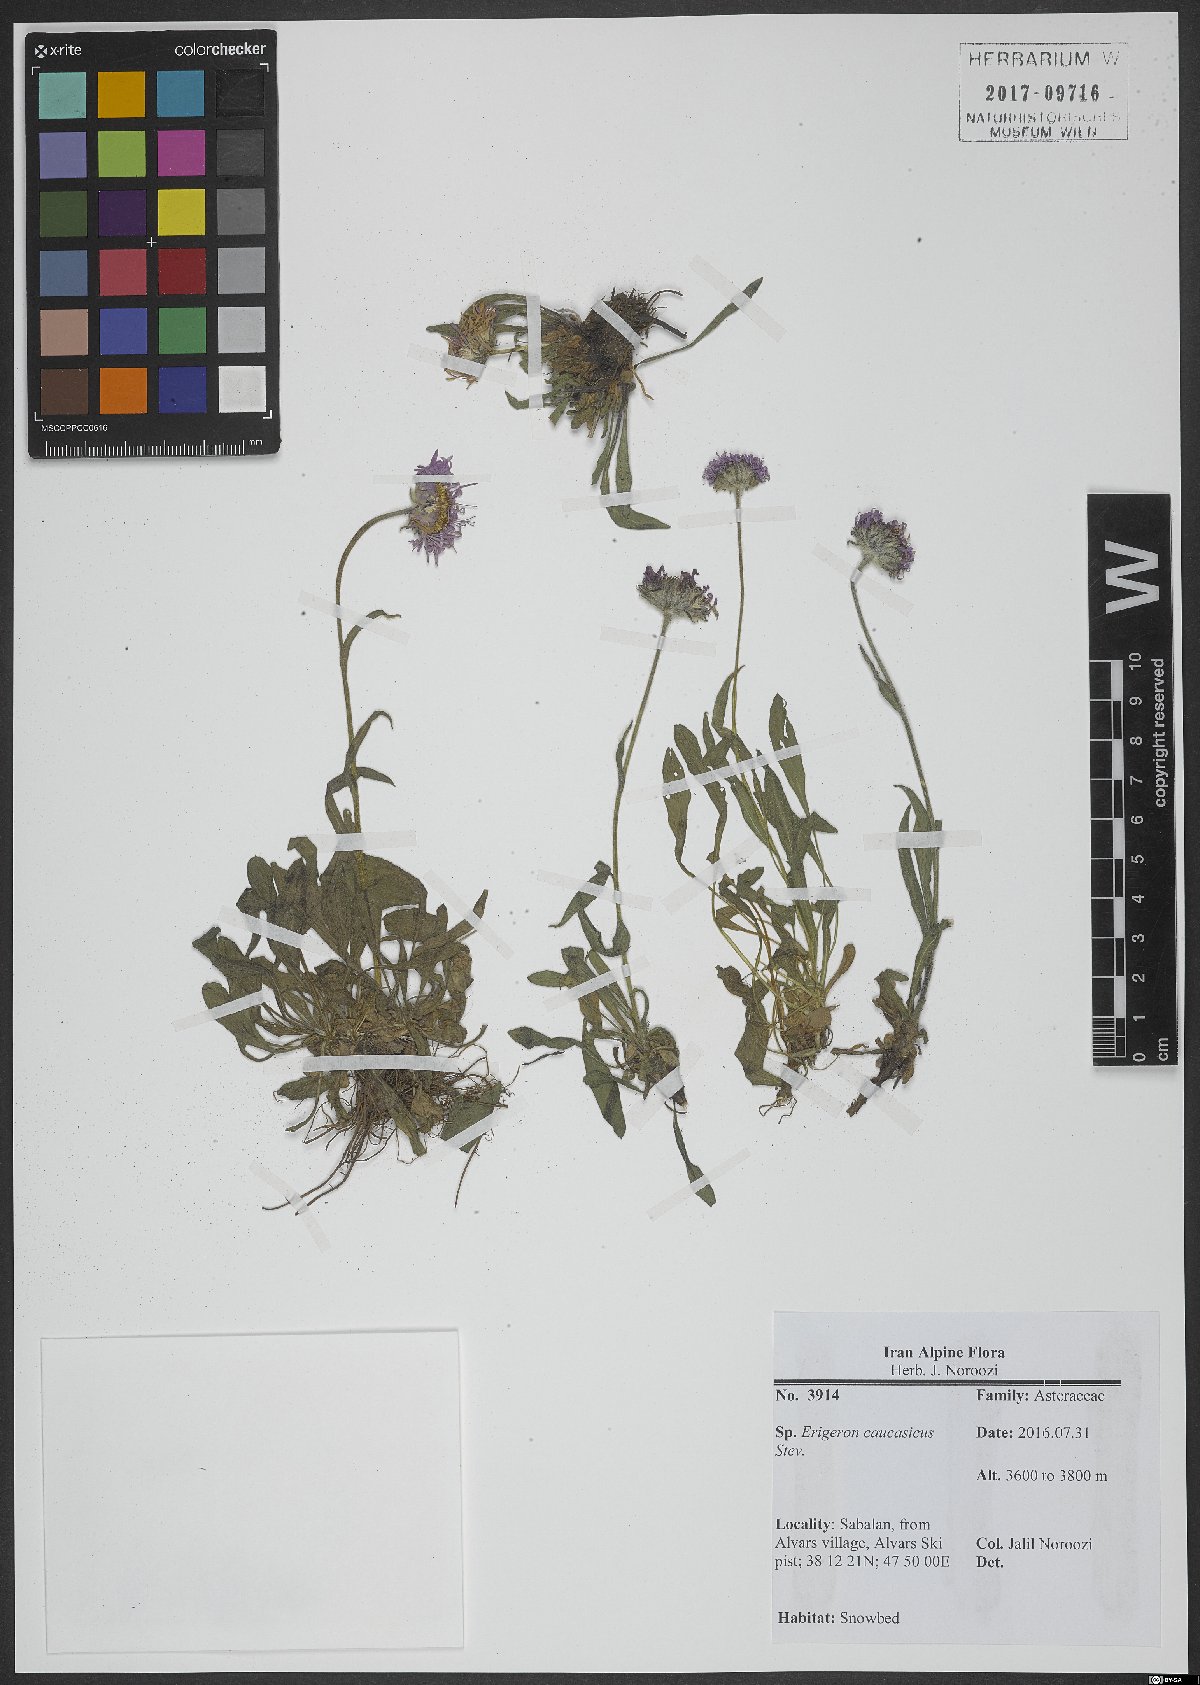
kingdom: Plantae
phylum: Tracheophyta
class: Magnoliopsida
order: Asterales
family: Asteraceae
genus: Erigeron
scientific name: Erigeron caucasicus
